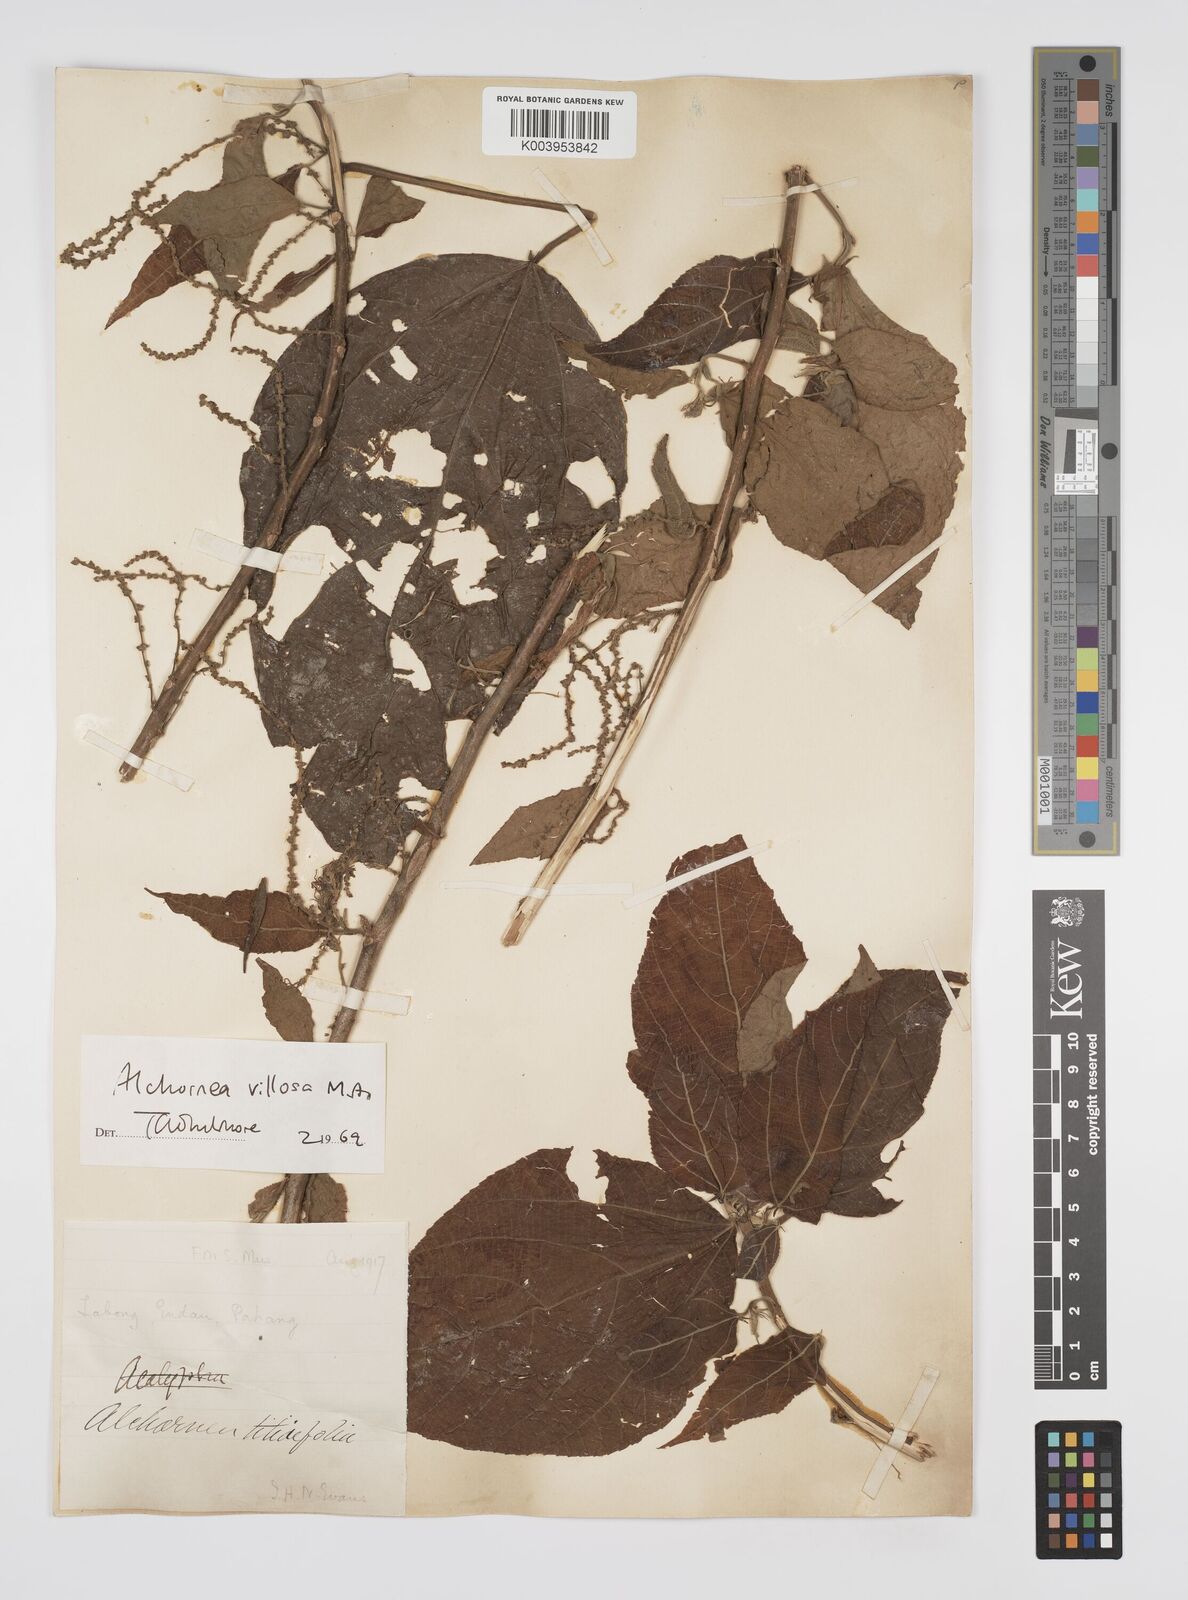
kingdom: Plantae
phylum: Tracheophyta
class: Magnoliopsida
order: Malpighiales
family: Euphorbiaceae
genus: Alchornea
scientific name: Alchornea tiliifolia
